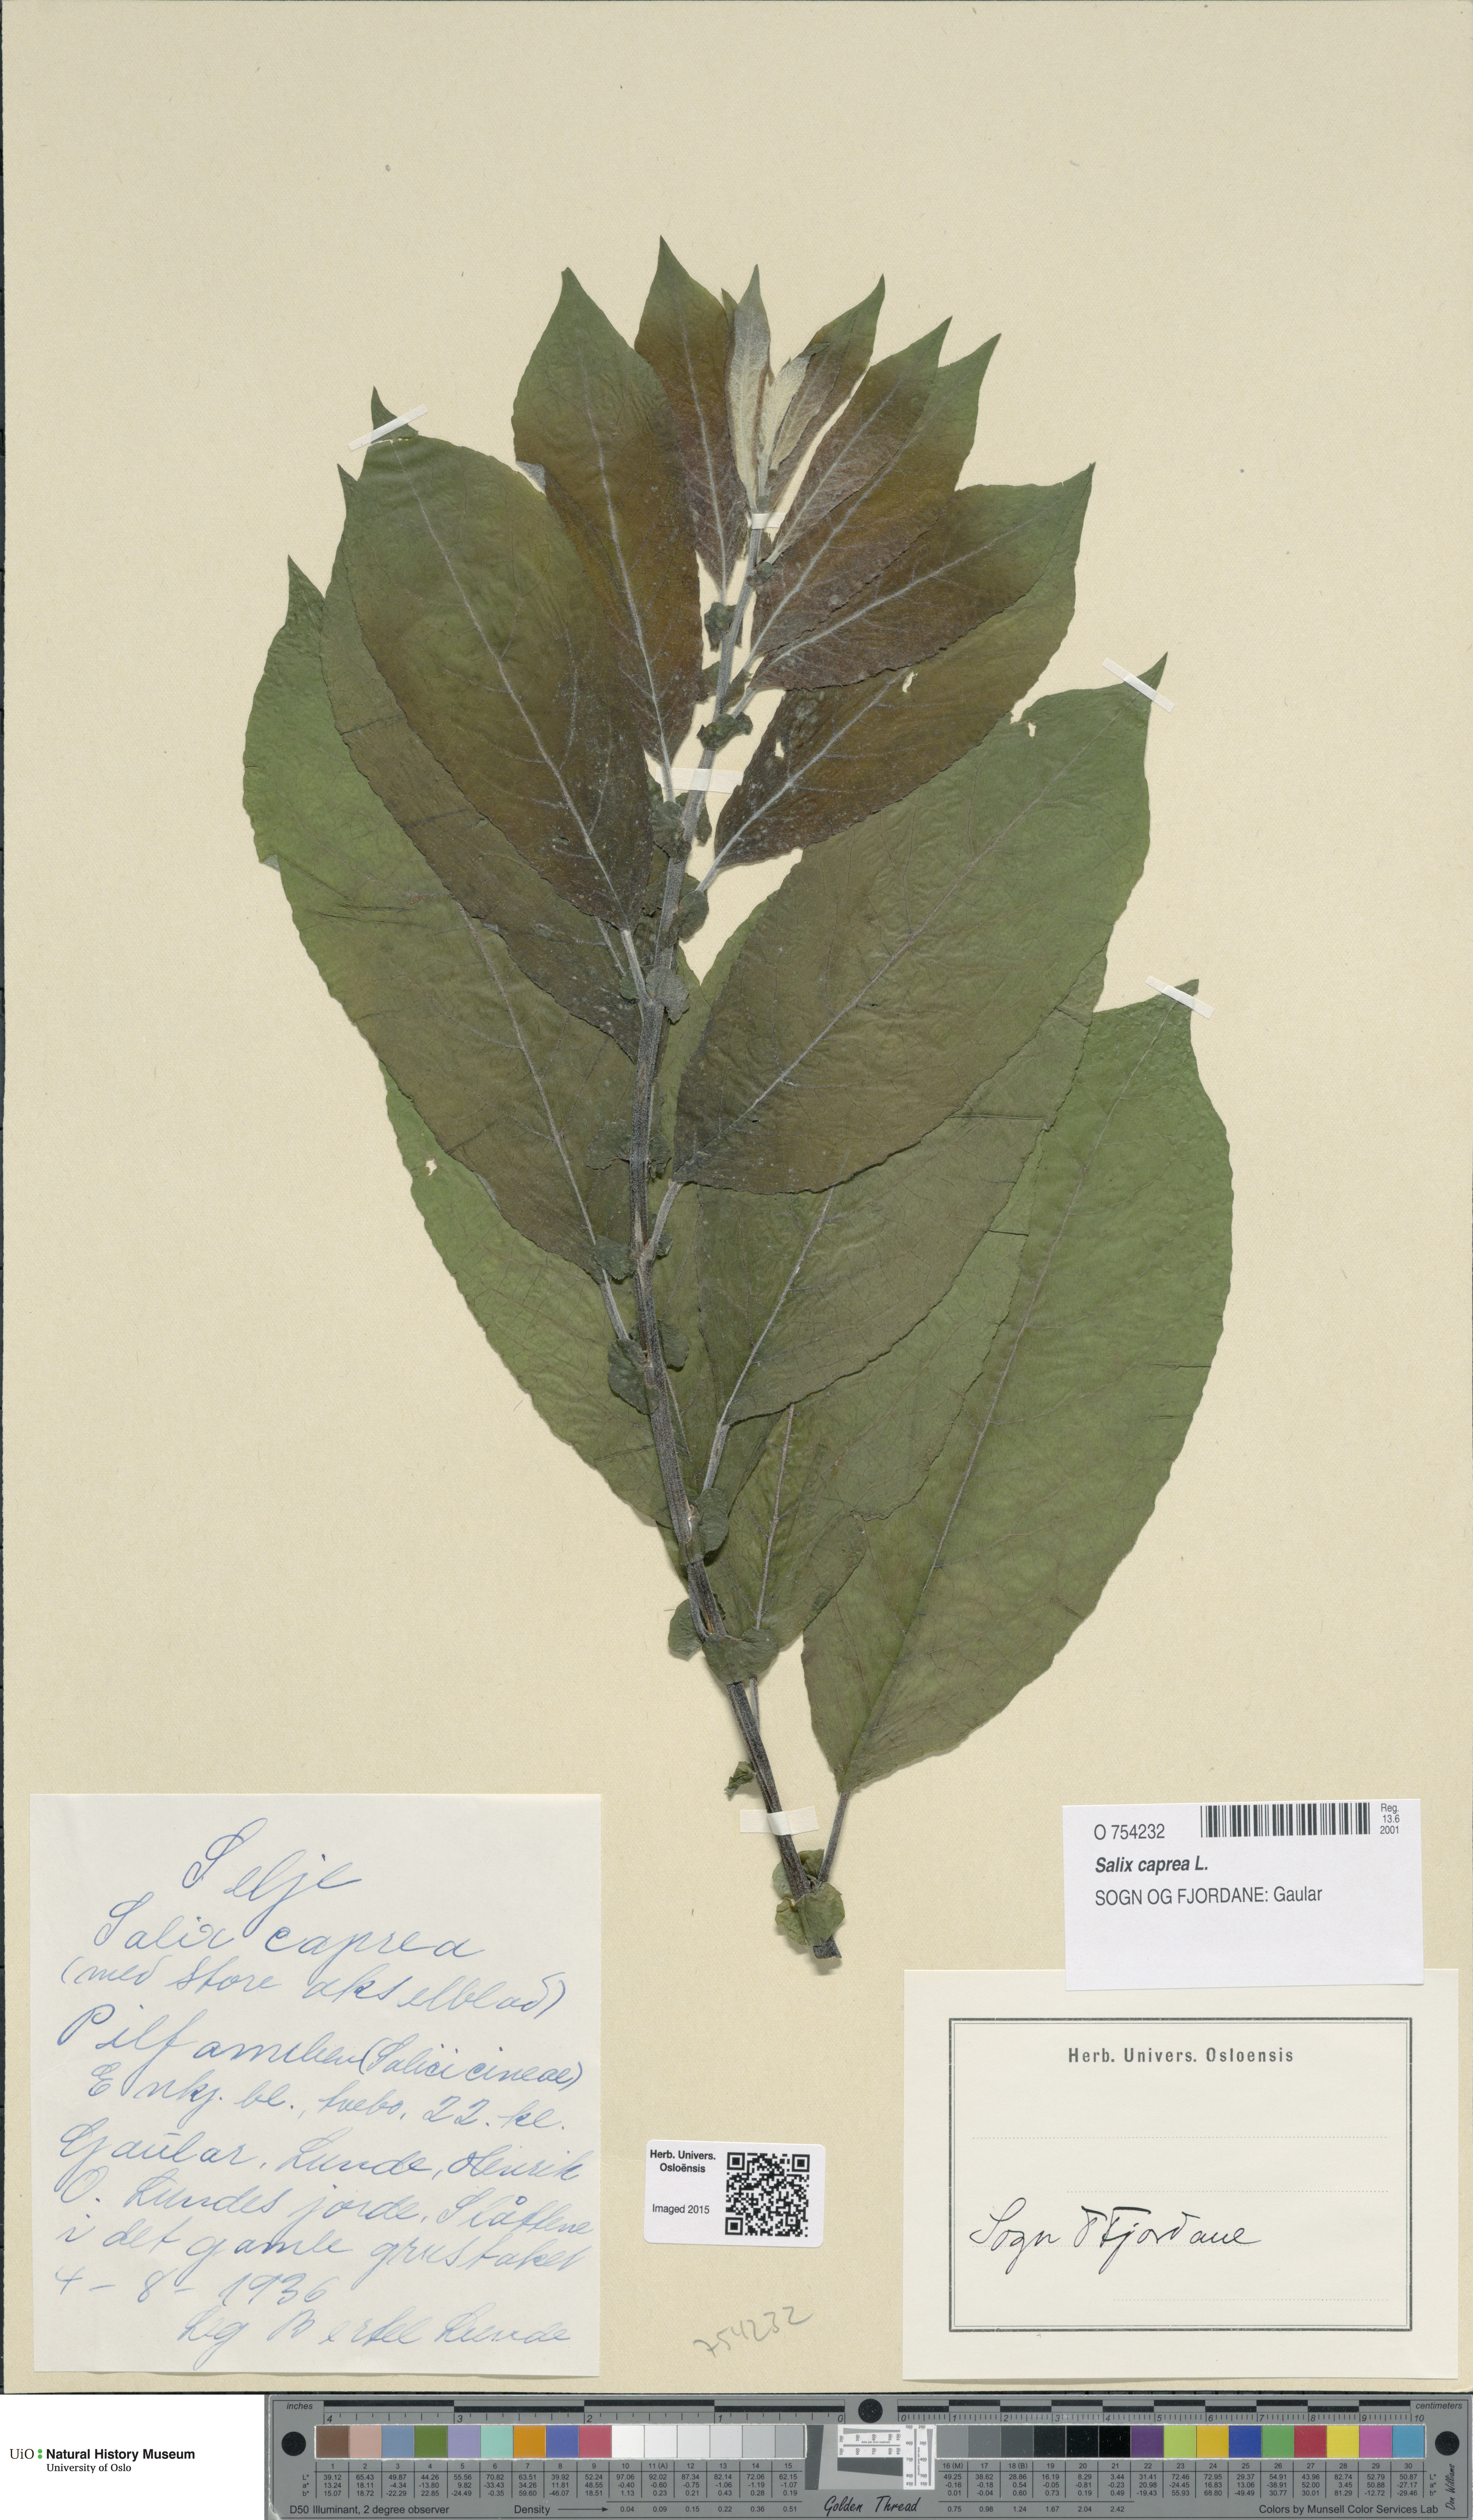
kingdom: Plantae
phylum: Tracheophyta
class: Magnoliopsida
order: Malpighiales
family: Salicaceae
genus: Salix
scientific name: Salix caprea
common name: Goat willow
